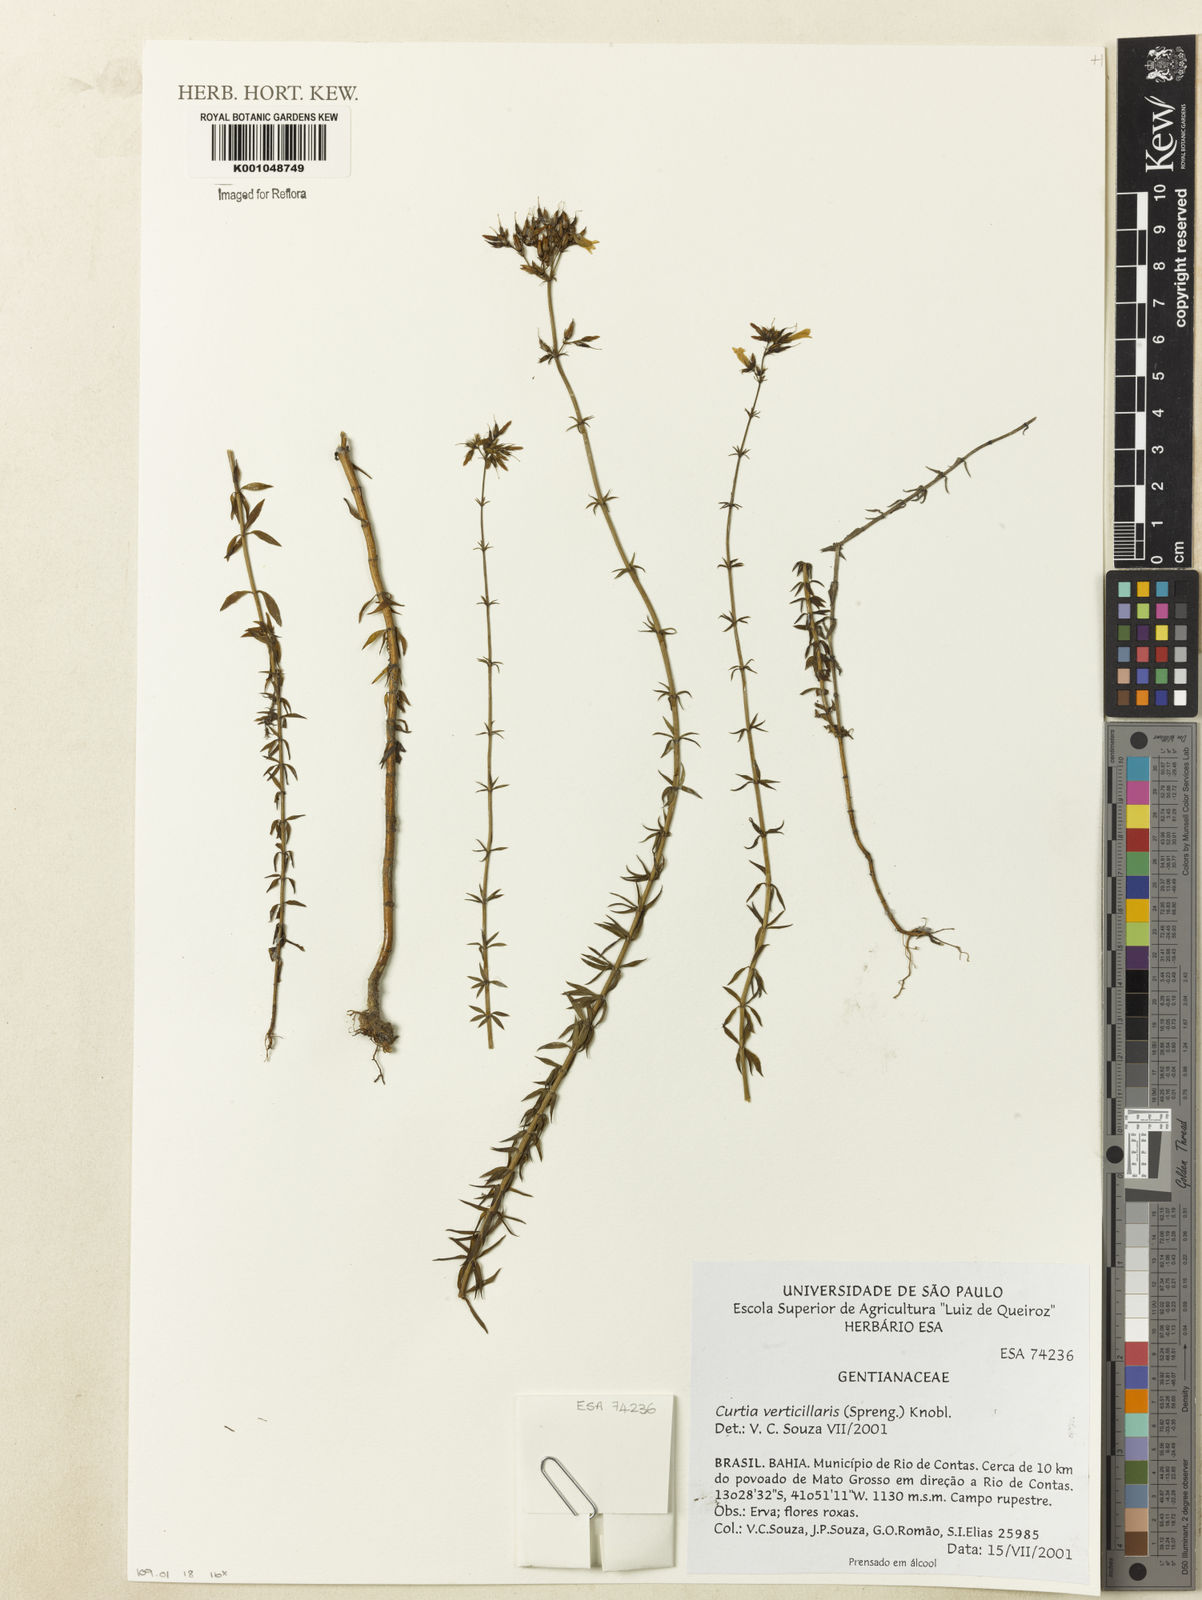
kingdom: Plantae
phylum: Tracheophyta
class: Magnoliopsida
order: Gentianales
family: Gentianaceae
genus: Curtia
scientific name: Curtia verticillaris
